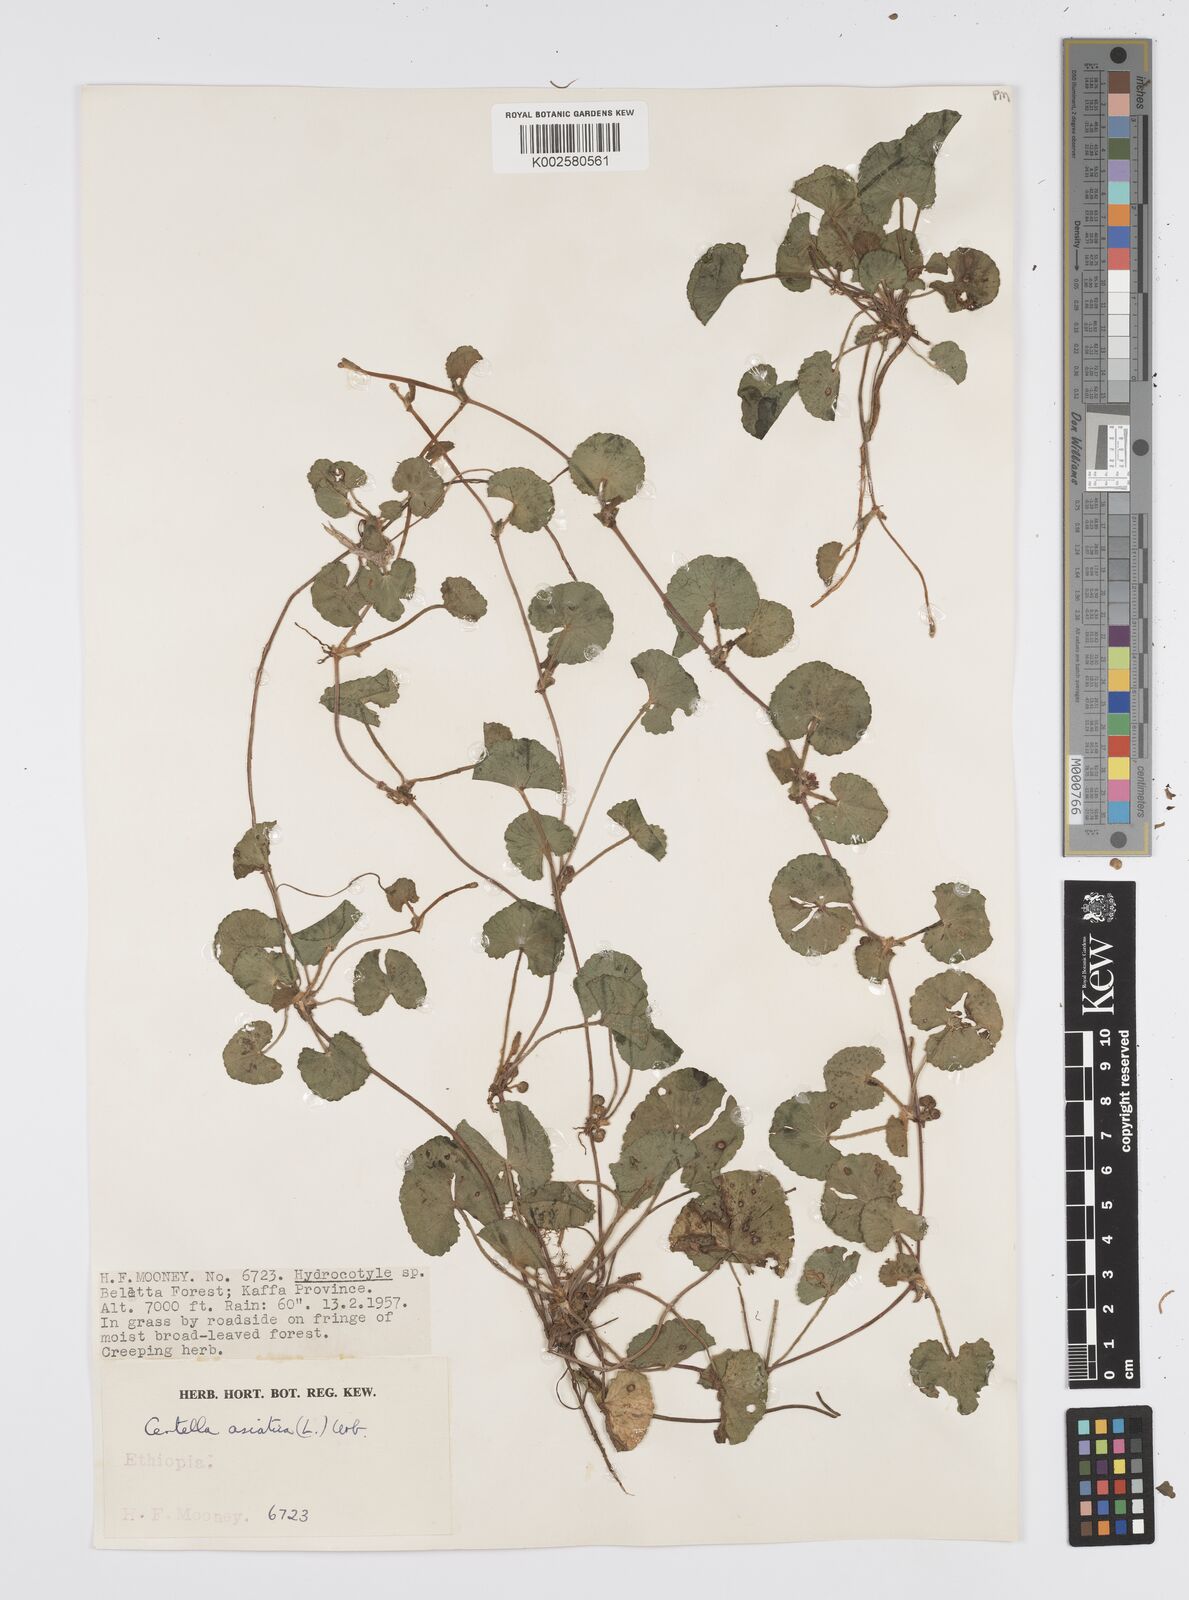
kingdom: Plantae
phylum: Tracheophyta
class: Magnoliopsida
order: Apiales
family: Apiaceae
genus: Centella
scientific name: Centella asiatica
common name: Spadeleaf
